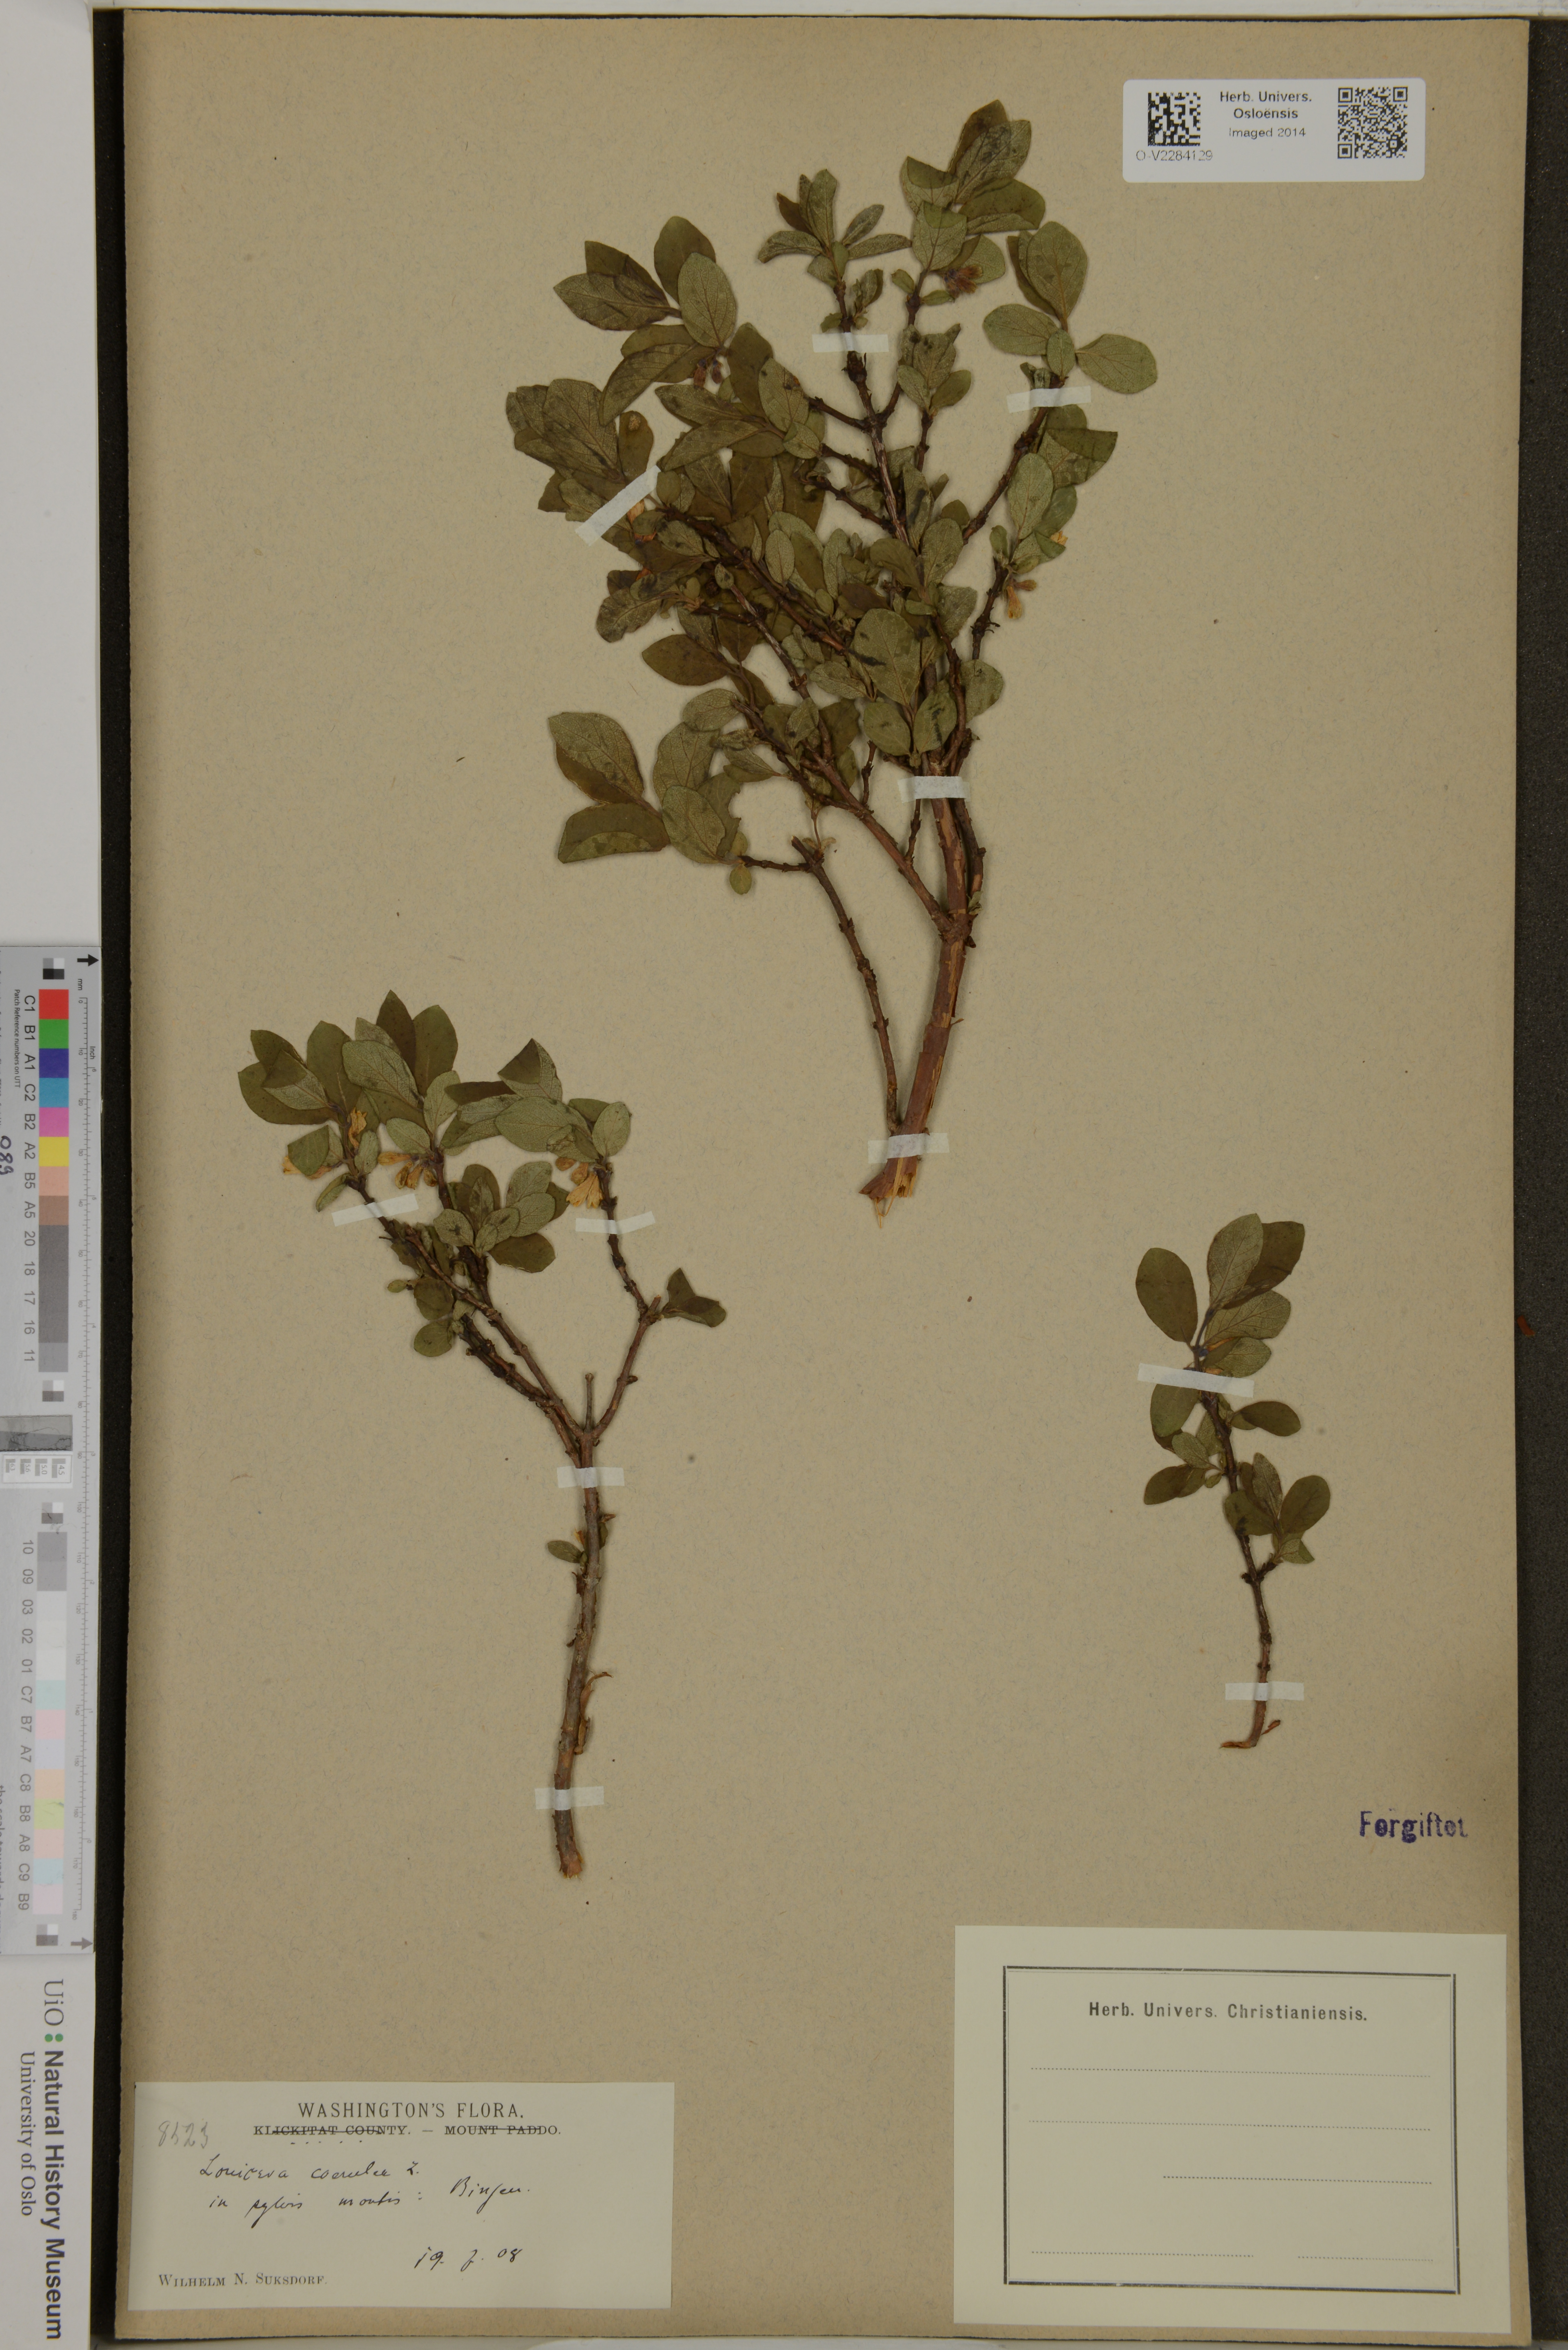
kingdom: Plantae
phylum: Tracheophyta
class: Magnoliopsida
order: Dipsacales
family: Caprifoliaceae
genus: Lonicera
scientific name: Lonicera caerulea
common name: Blue honeysuckle
